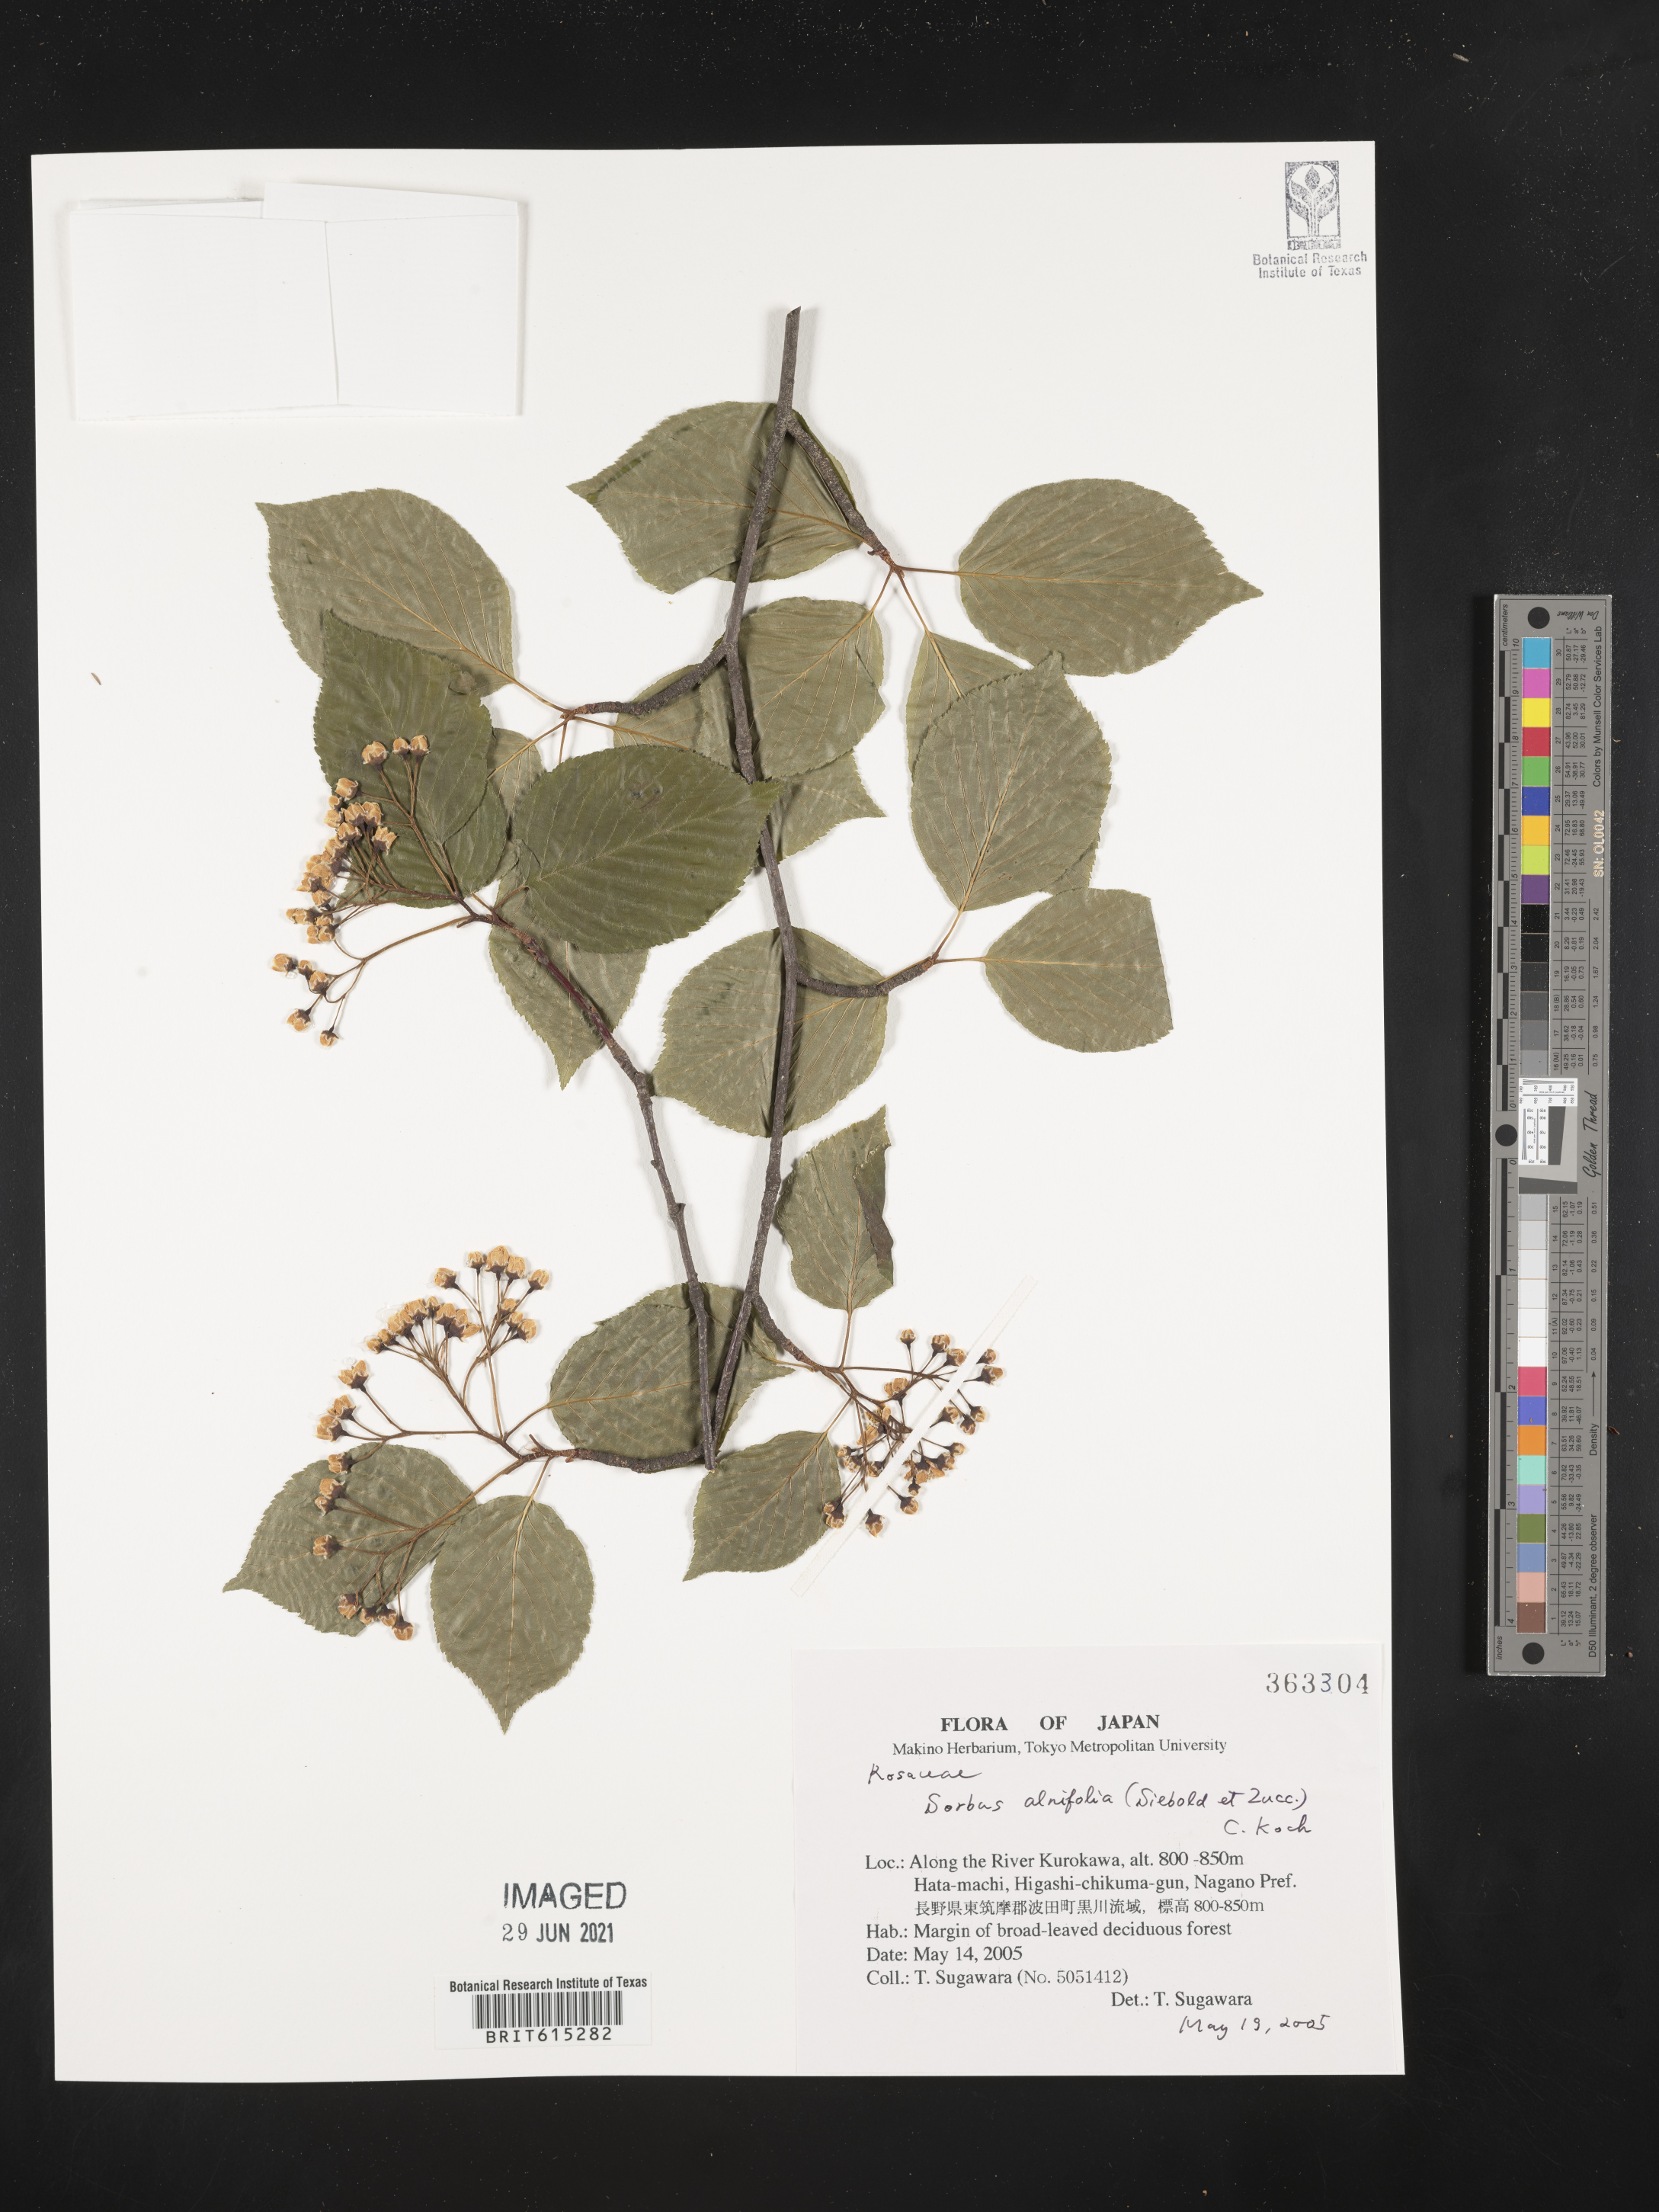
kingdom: Plantae
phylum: Tracheophyta
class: Magnoliopsida
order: Rosales
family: Rosaceae
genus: Sorbus
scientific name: Sorbus alnifolia
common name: Mountain-ash
